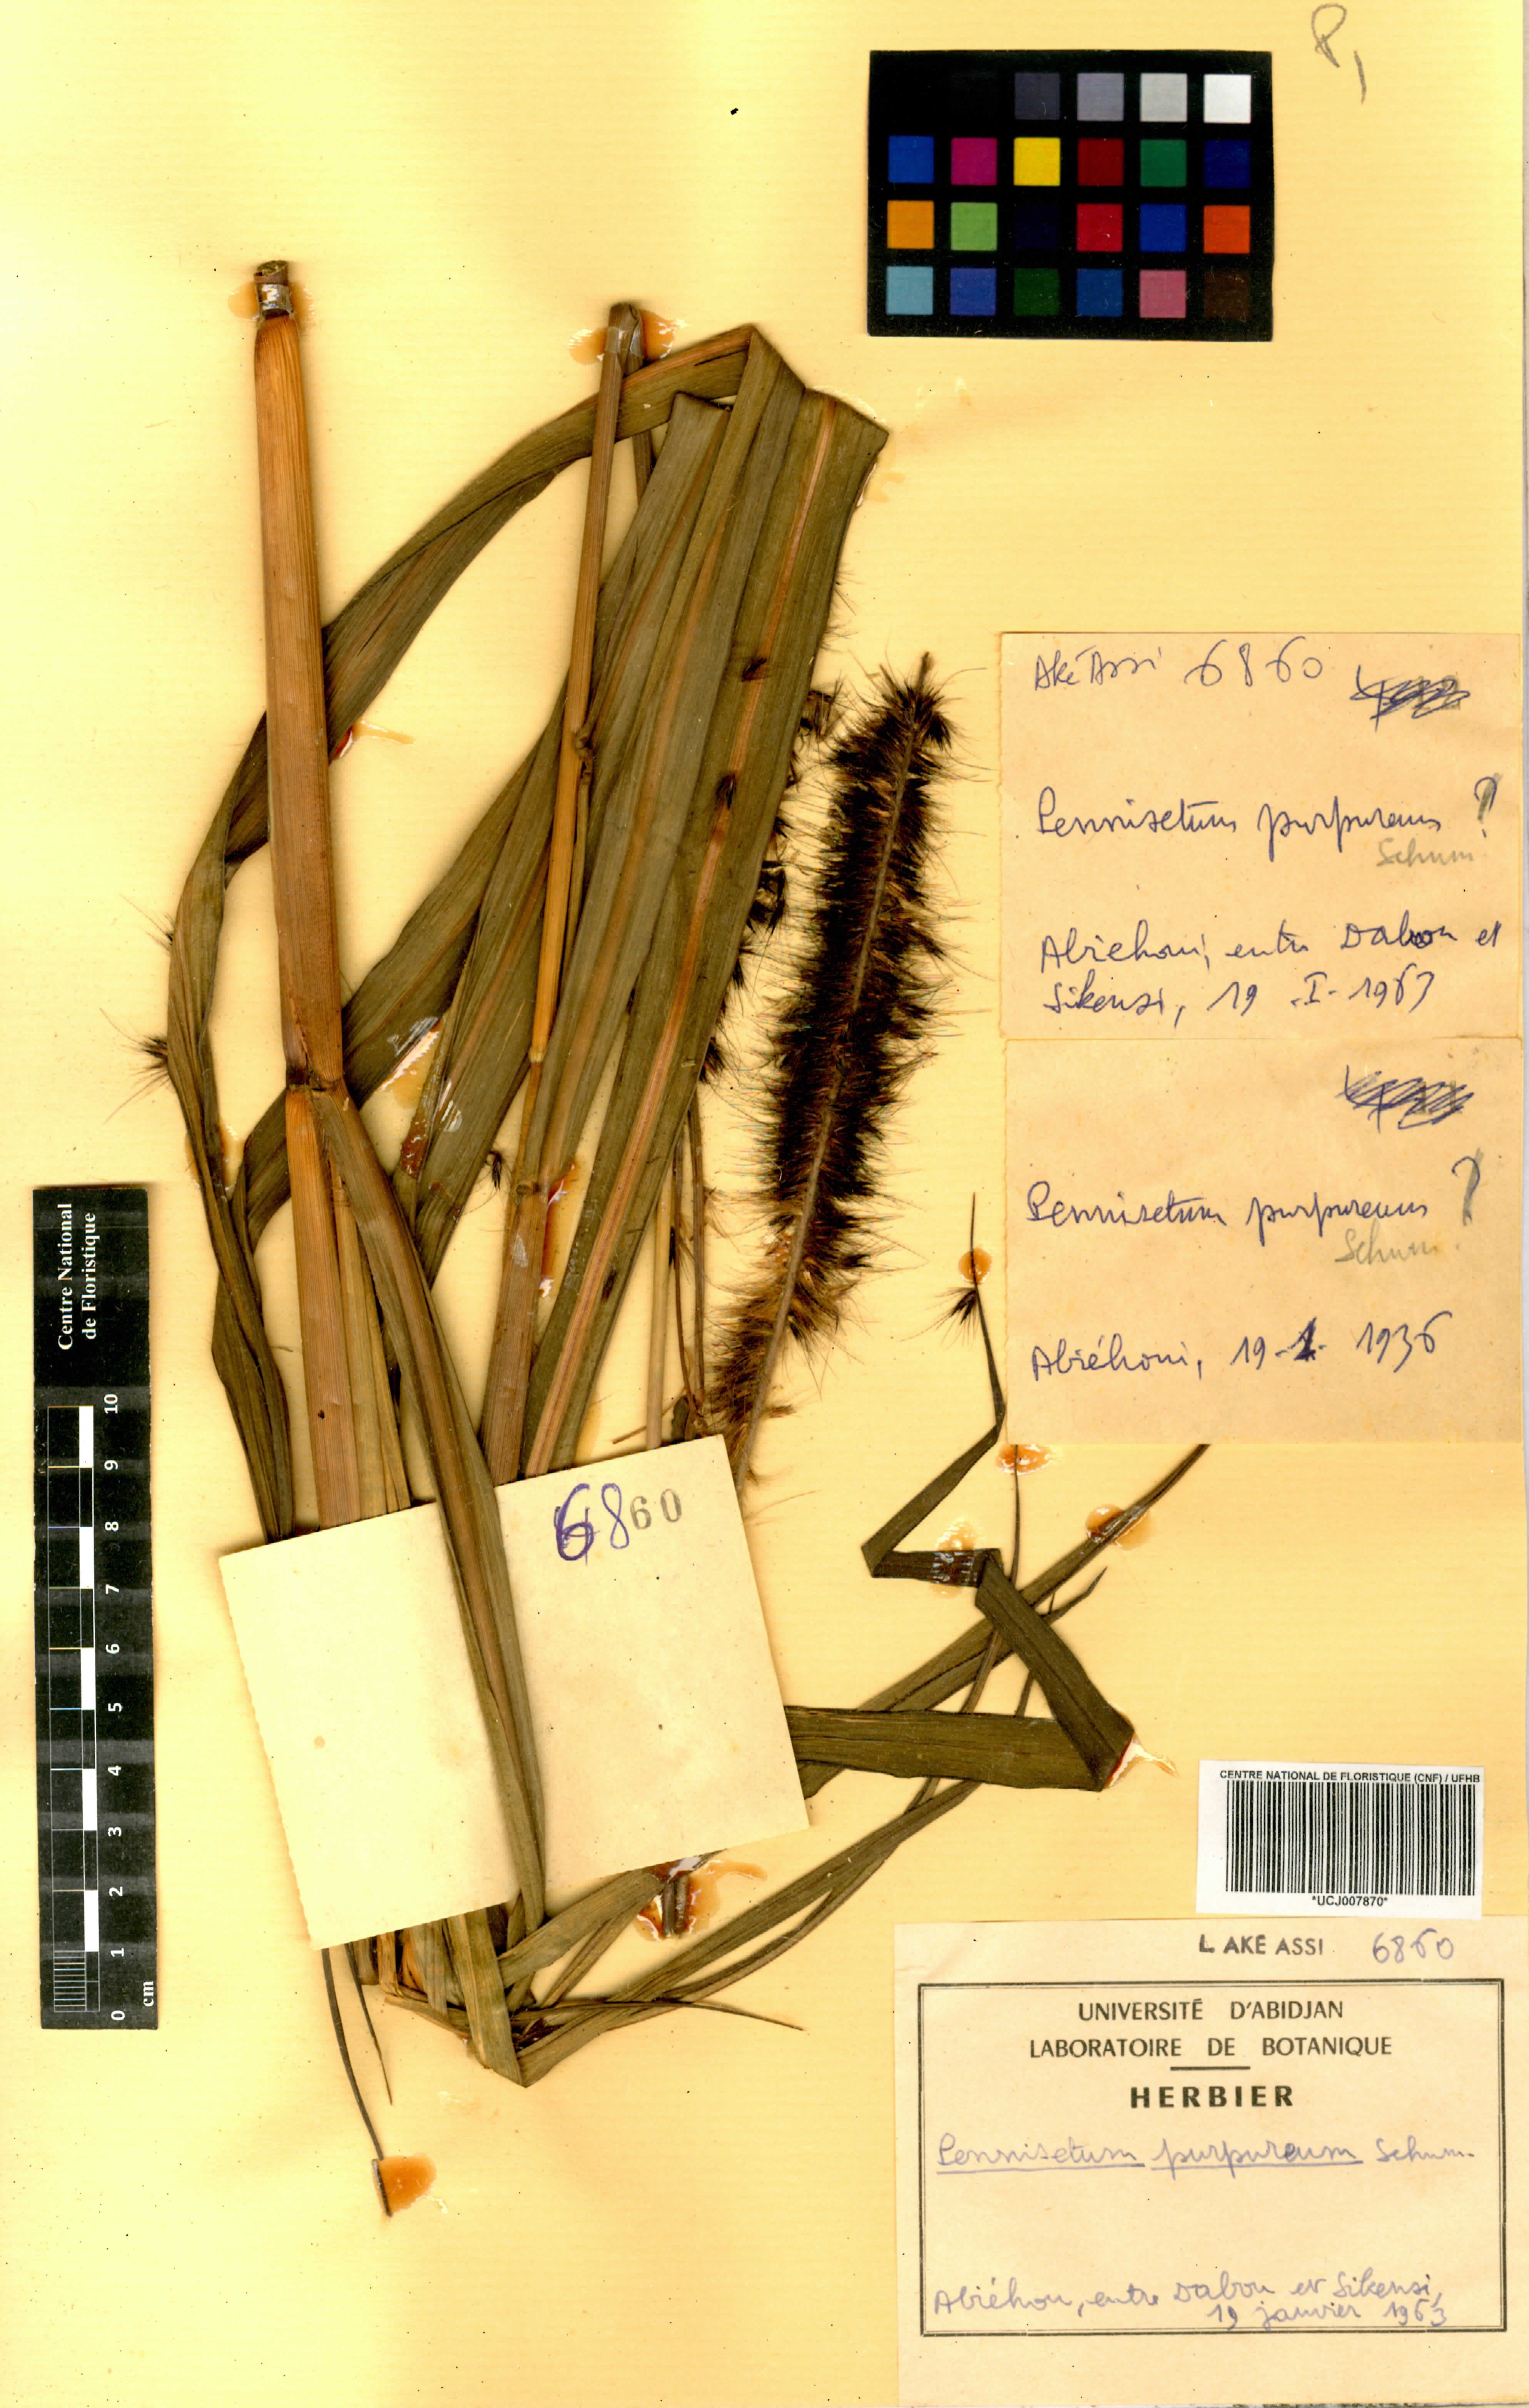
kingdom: Plantae
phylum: Tracheophyta
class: Liliopsida
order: Poales
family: Poaceae
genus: Cenchrus
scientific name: Cenchrus purpureus
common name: Elephant grass
